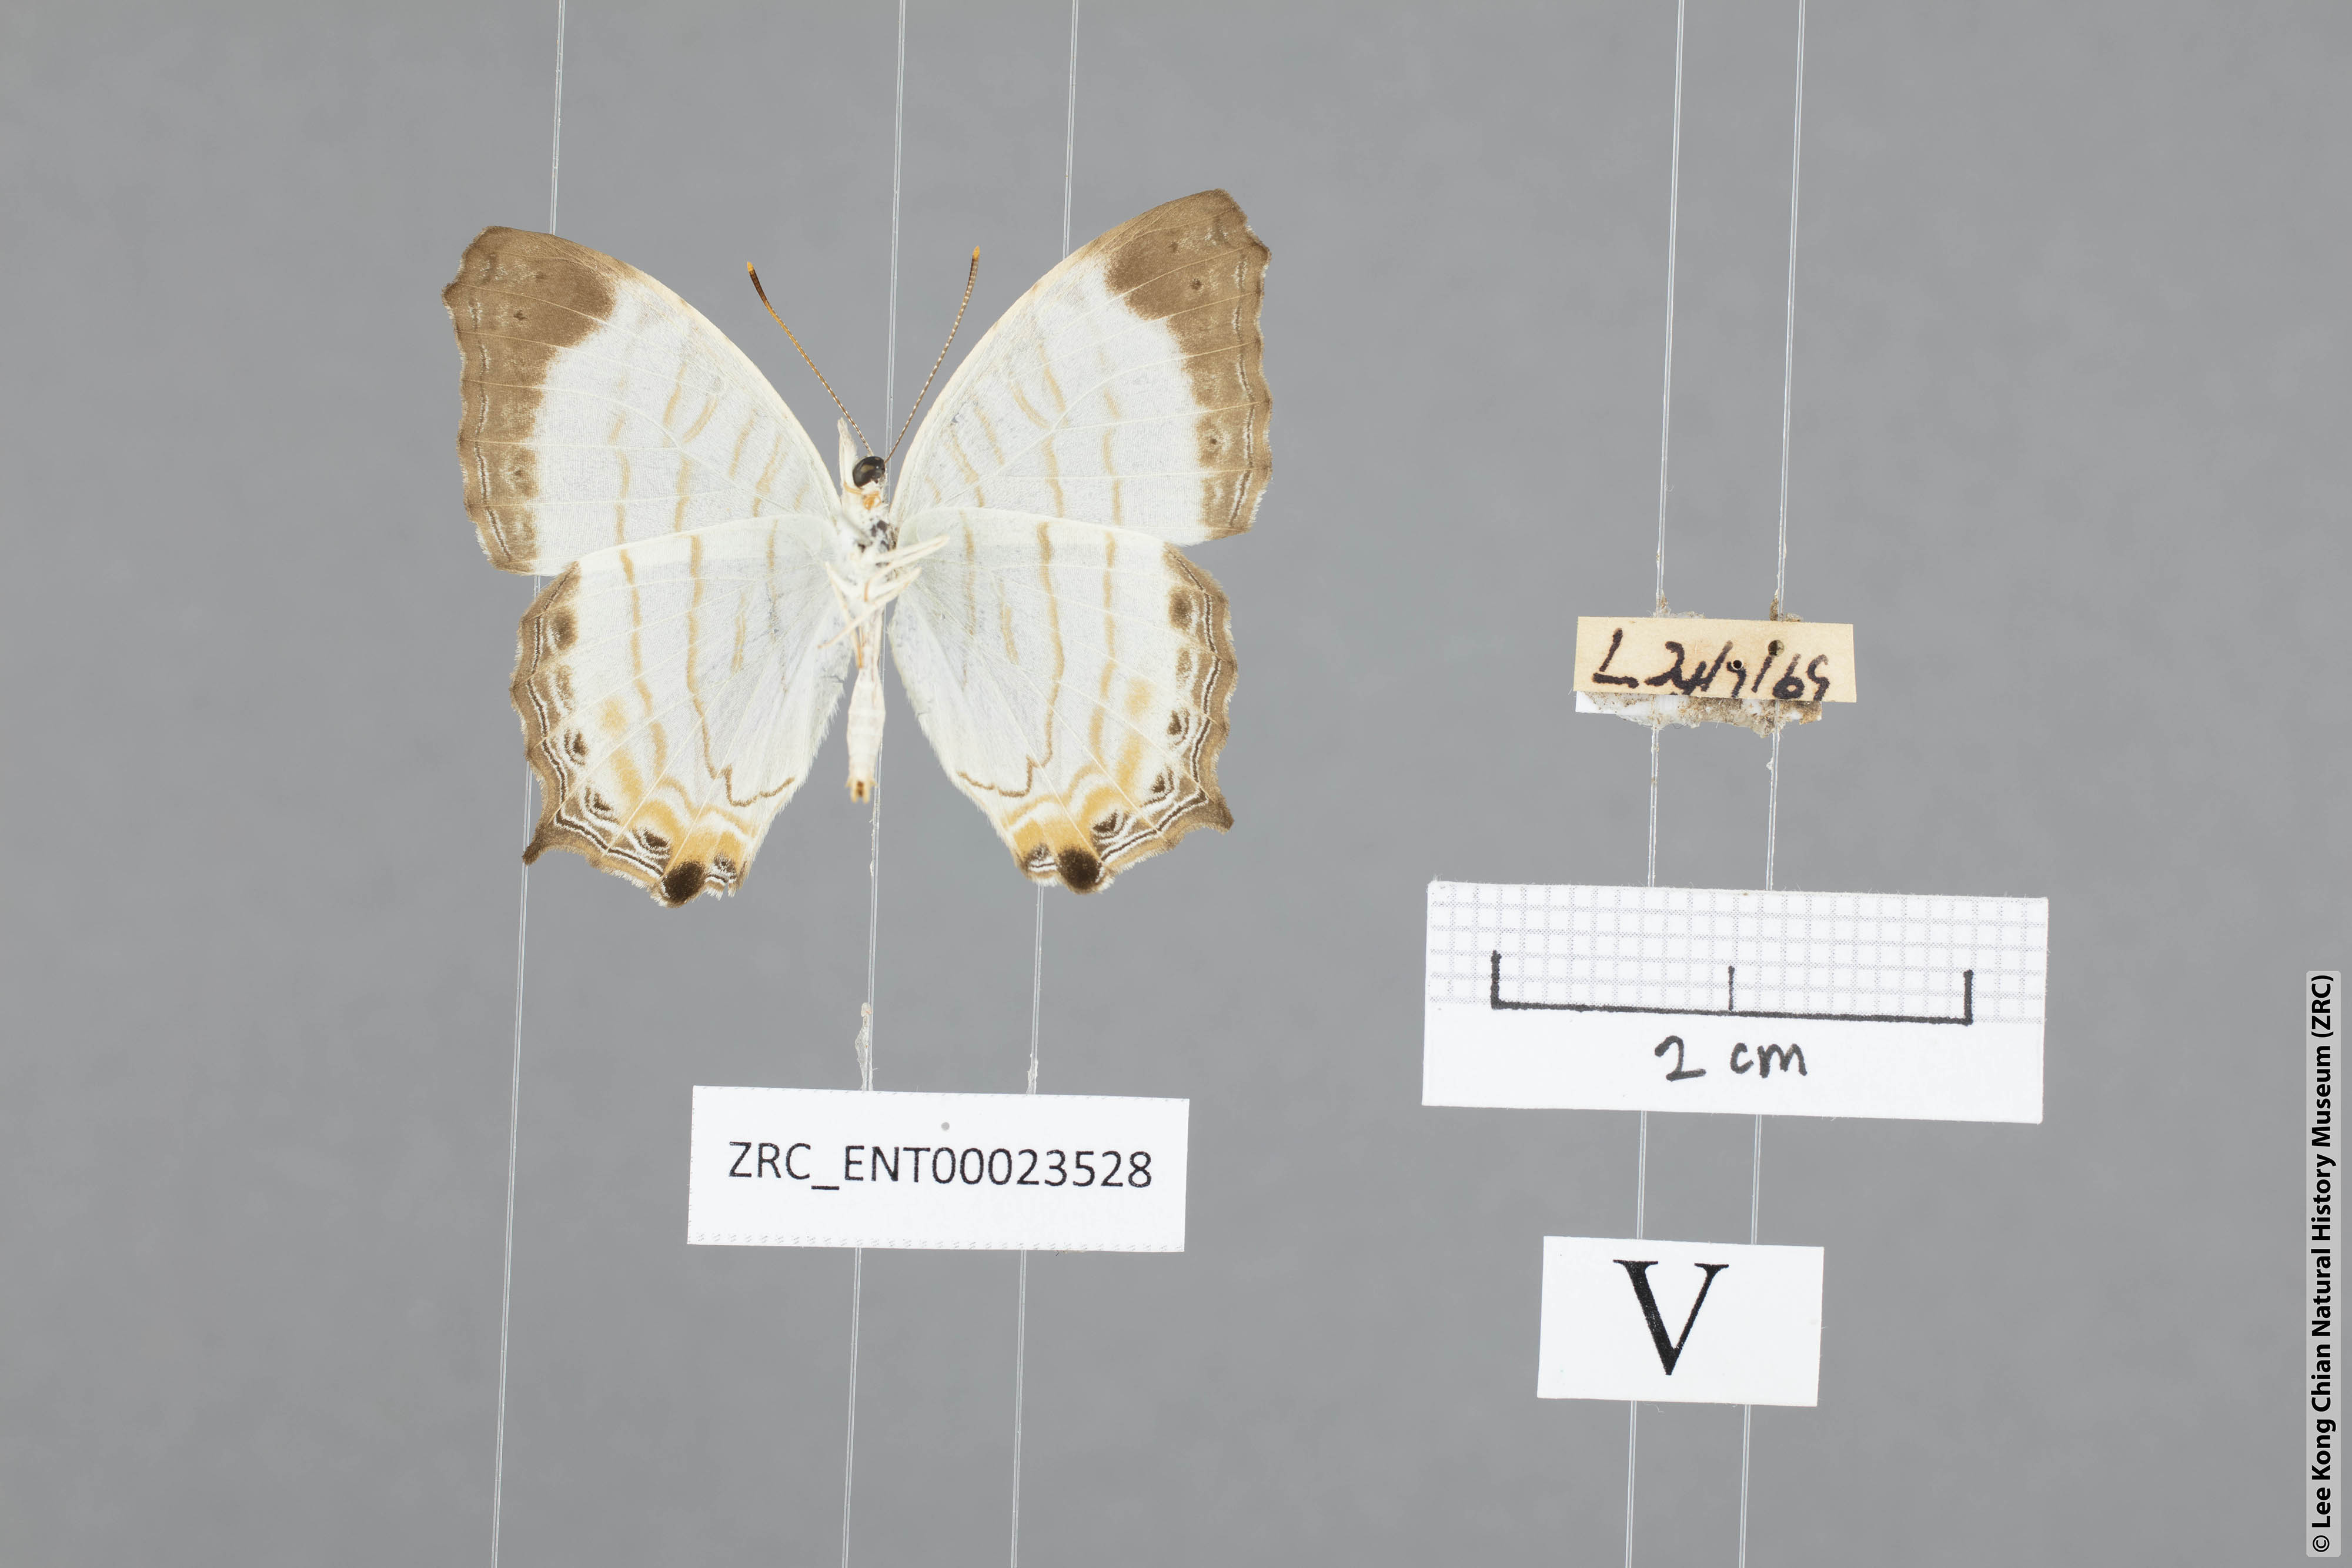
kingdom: Animalia
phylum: Arthropoda
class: Insecta
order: Lepidoptera
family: Nymphalidae
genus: Cyrestis
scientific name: Cyrestis themire
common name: Little mapwing
